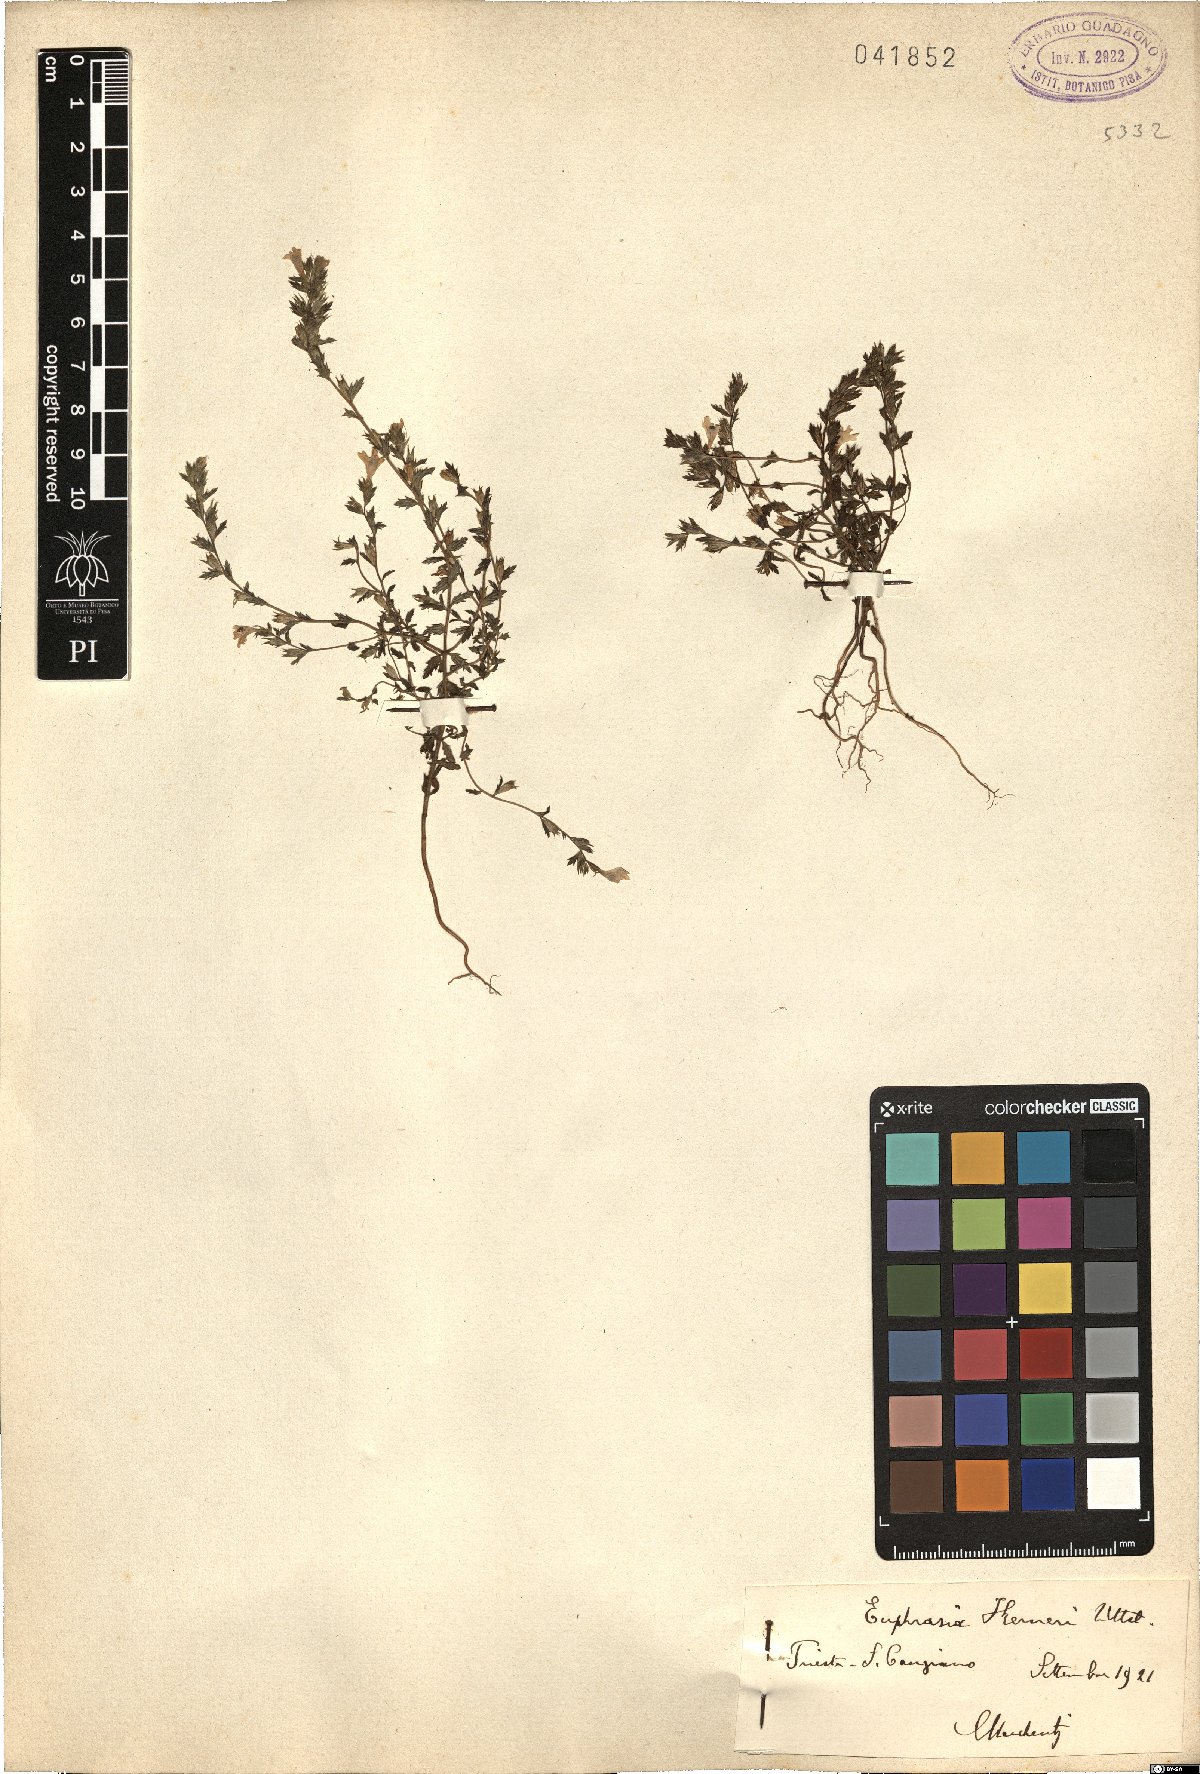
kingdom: Plantae
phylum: Tracheophyta
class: Magnoliopsida
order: Lamiales
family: Orobanchaceae
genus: Euphrasia
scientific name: Euphrasia kerneri
